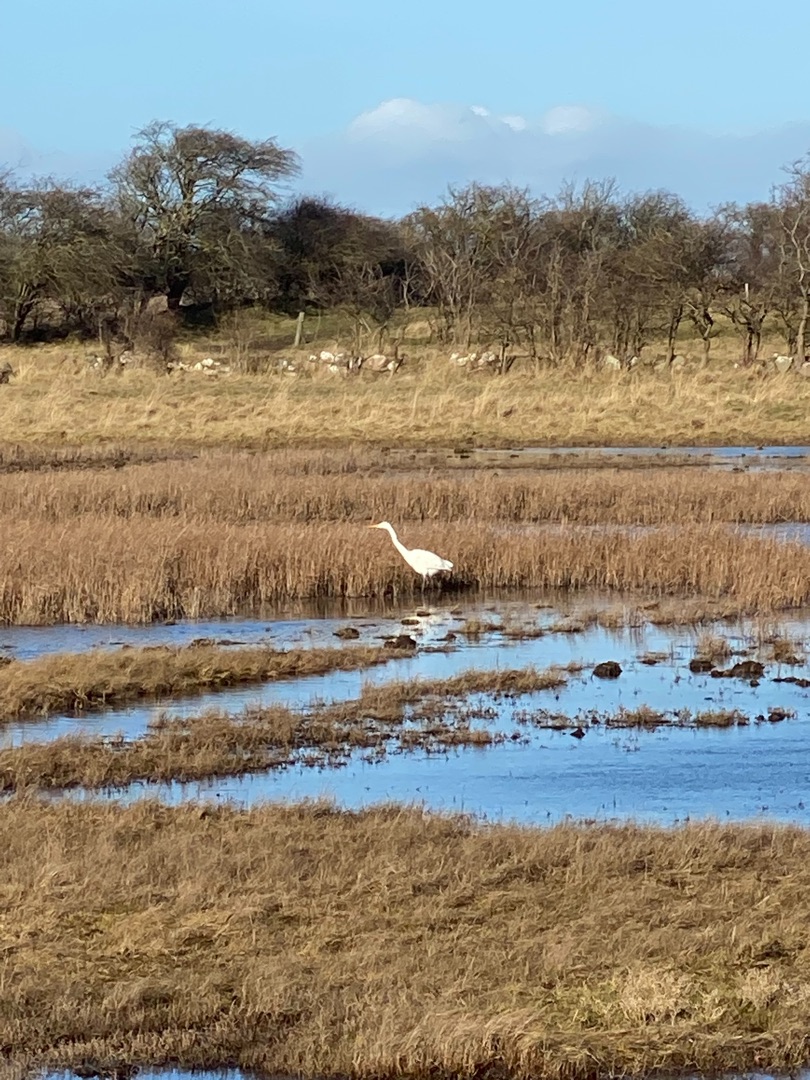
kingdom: Animalia
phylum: Chordata
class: Aves
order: Pelecaniformes
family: Ardeidae
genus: Ardea
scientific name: Ardea alba
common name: Sølvhejre
